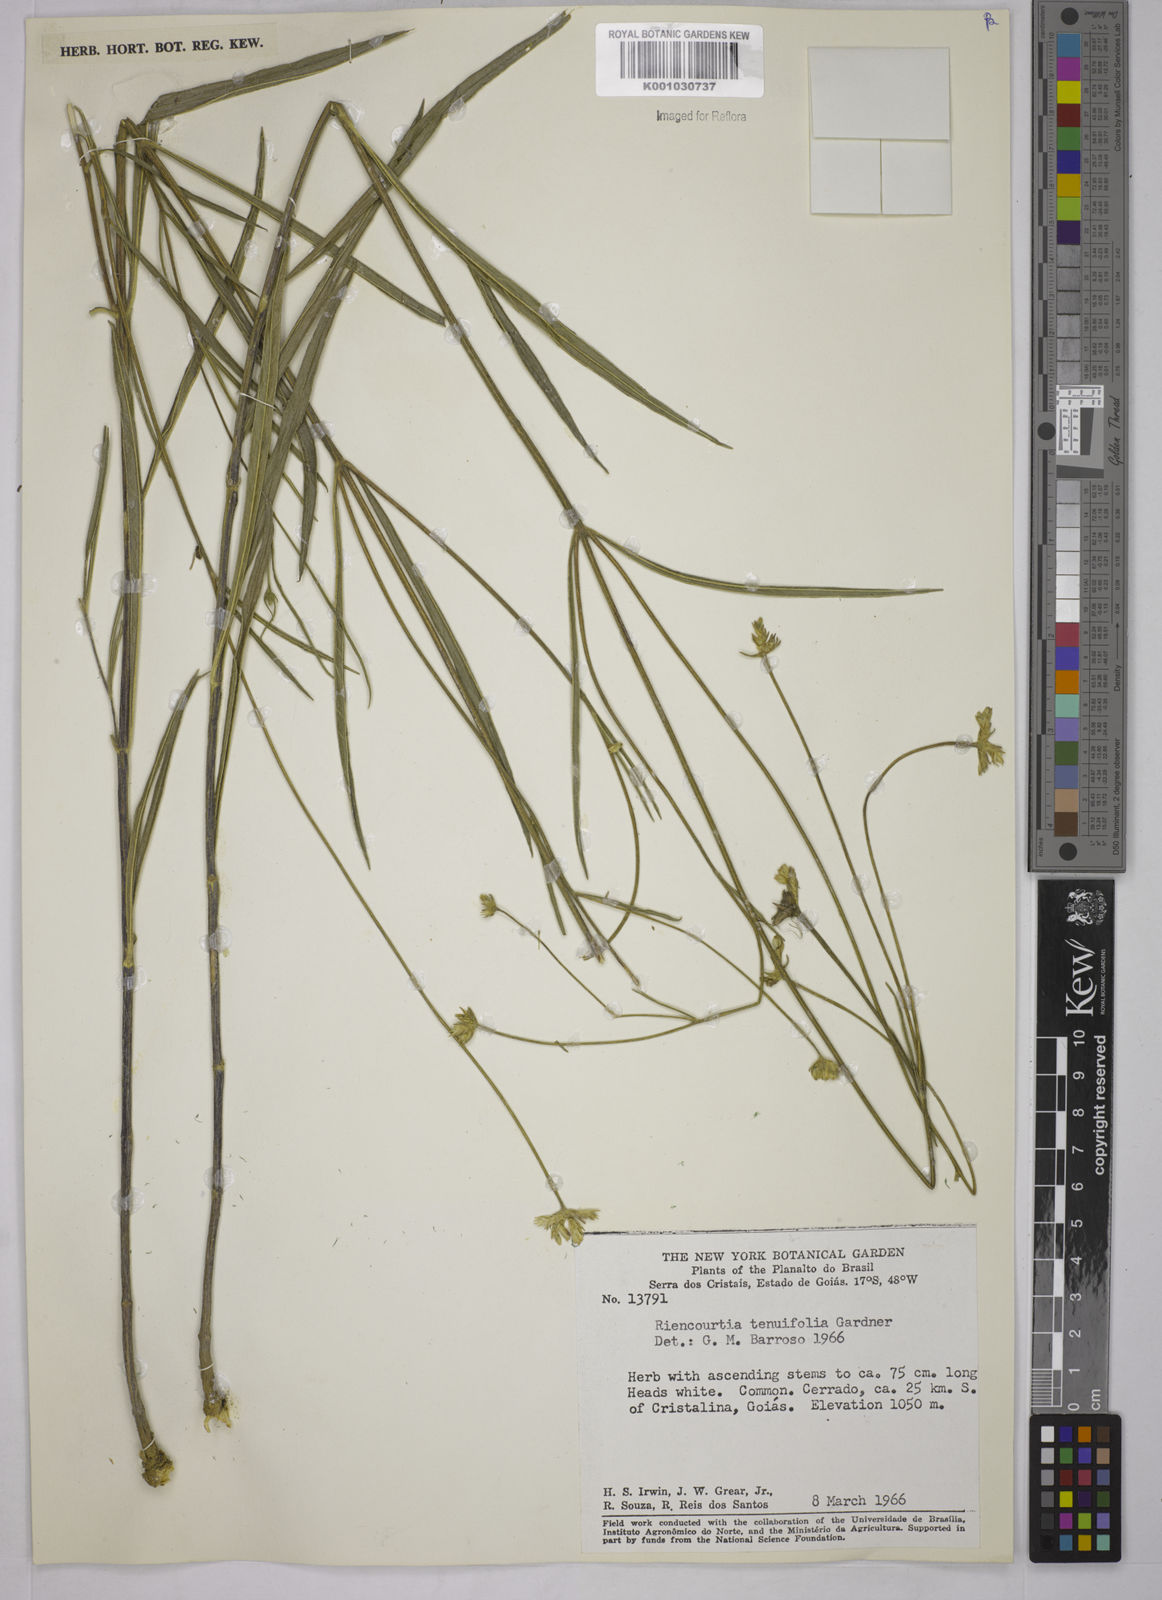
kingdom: Plantae
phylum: Tracheophyta
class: Magnoliopsida
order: Asterales
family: Asteraceae
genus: Riencourtia
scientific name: Riencourtia tenuifolia
